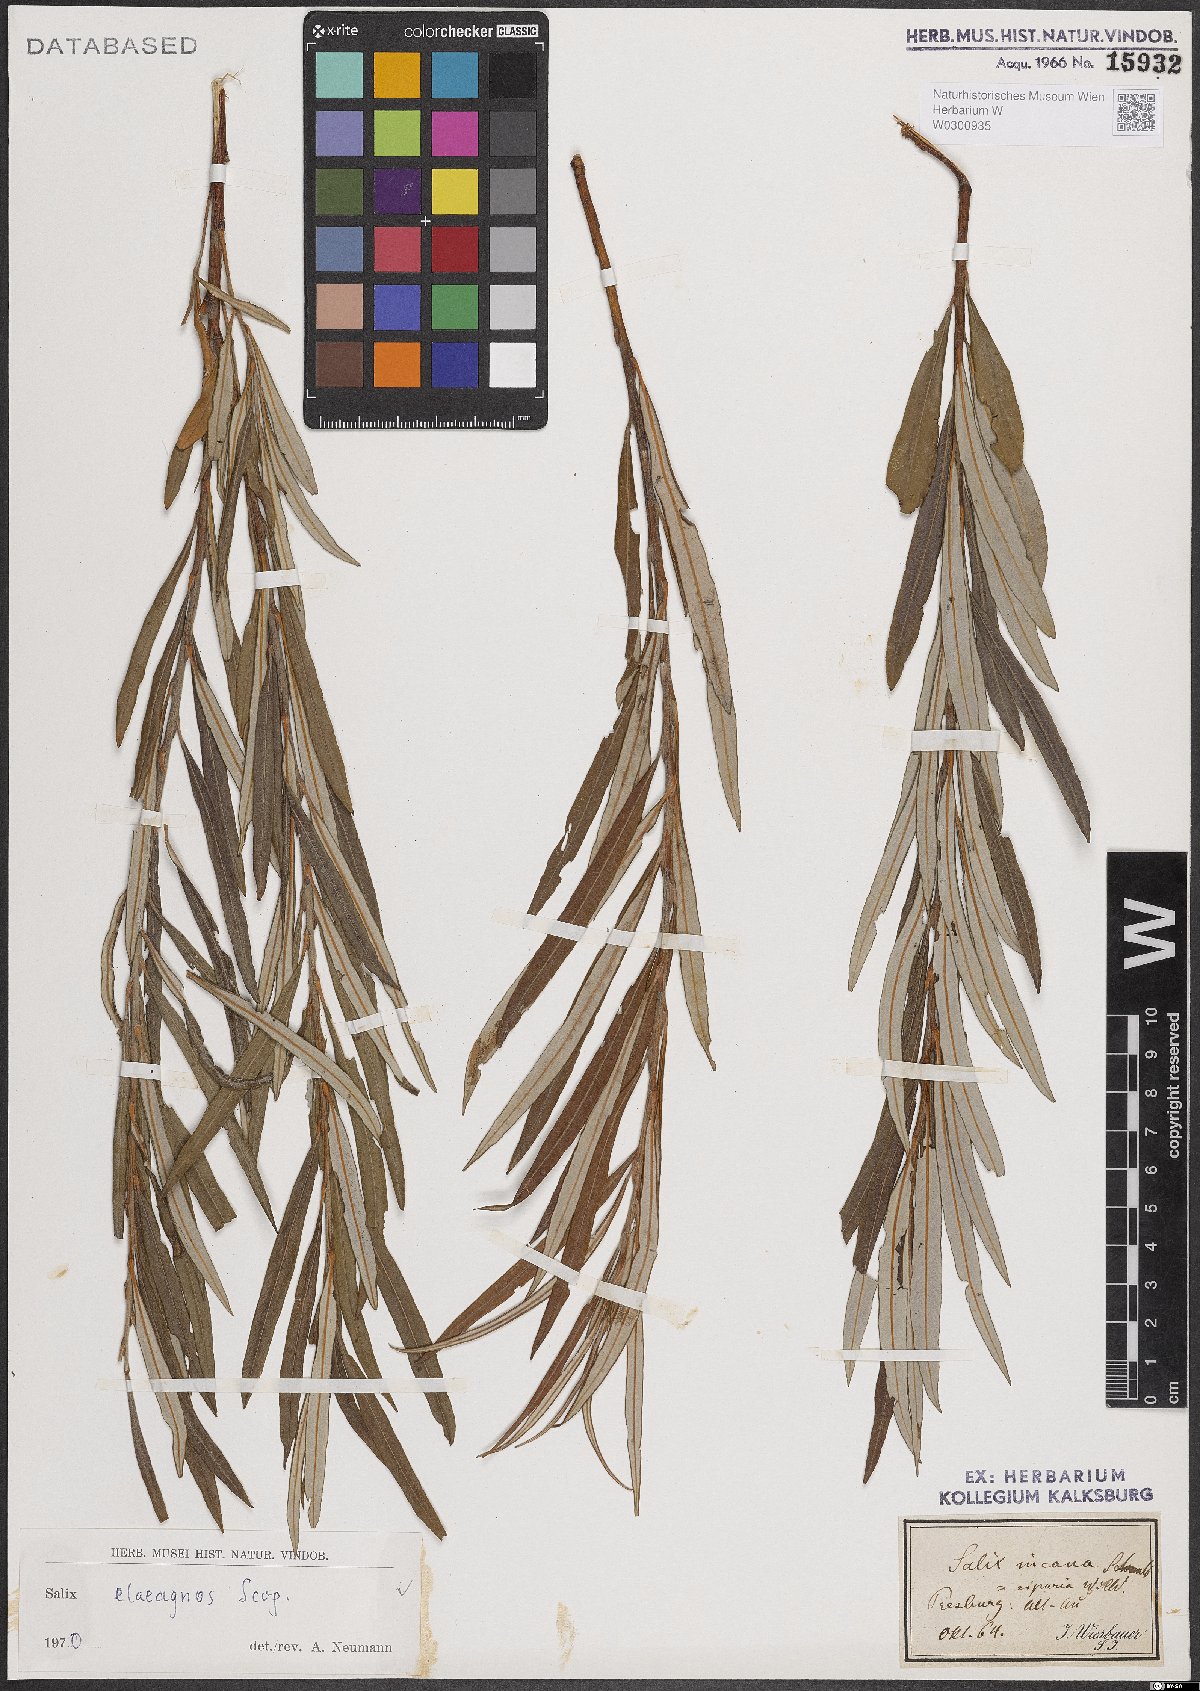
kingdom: Plantae
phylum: Tracheophyta
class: Magnoliopsida
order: Malpighiales
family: Salicaceae
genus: Salix
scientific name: Salix eleagnos
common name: Elaeagnus willow
